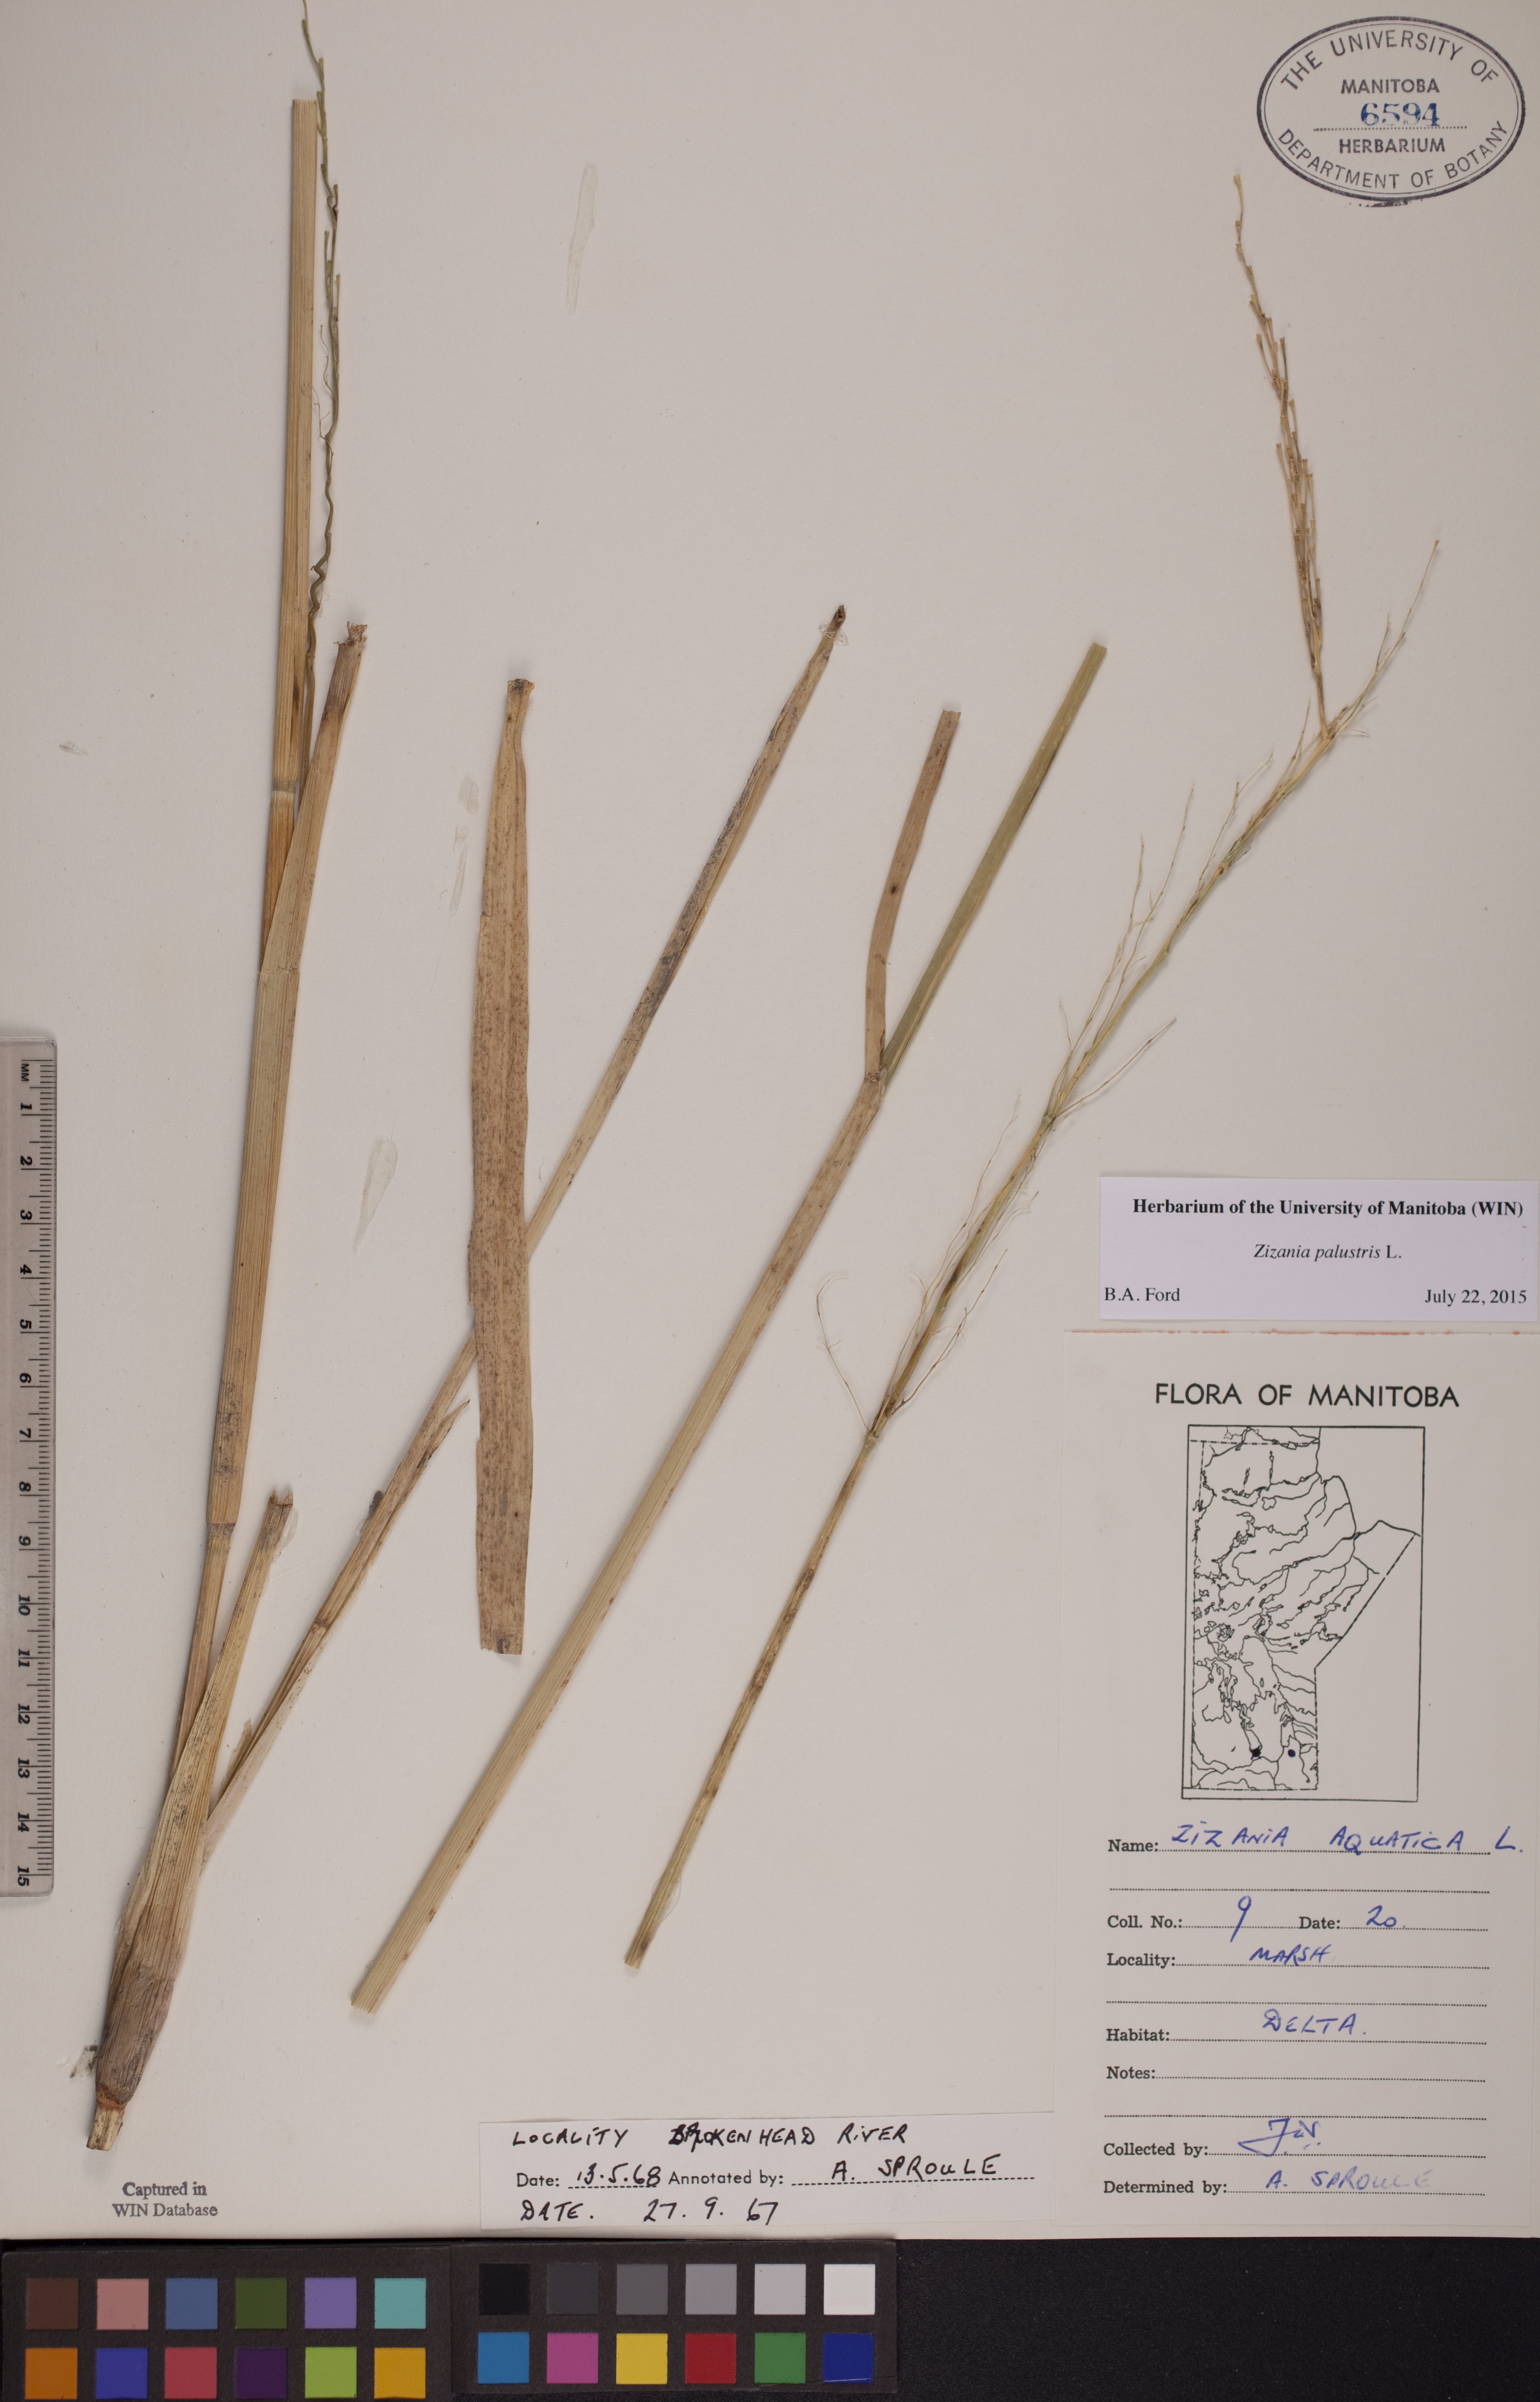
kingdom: Plantae
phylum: Tracheophyta
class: Liliopsida
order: Poales
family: Poaceae
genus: Zizania
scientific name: Zizania palustris
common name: Northern wild rice
